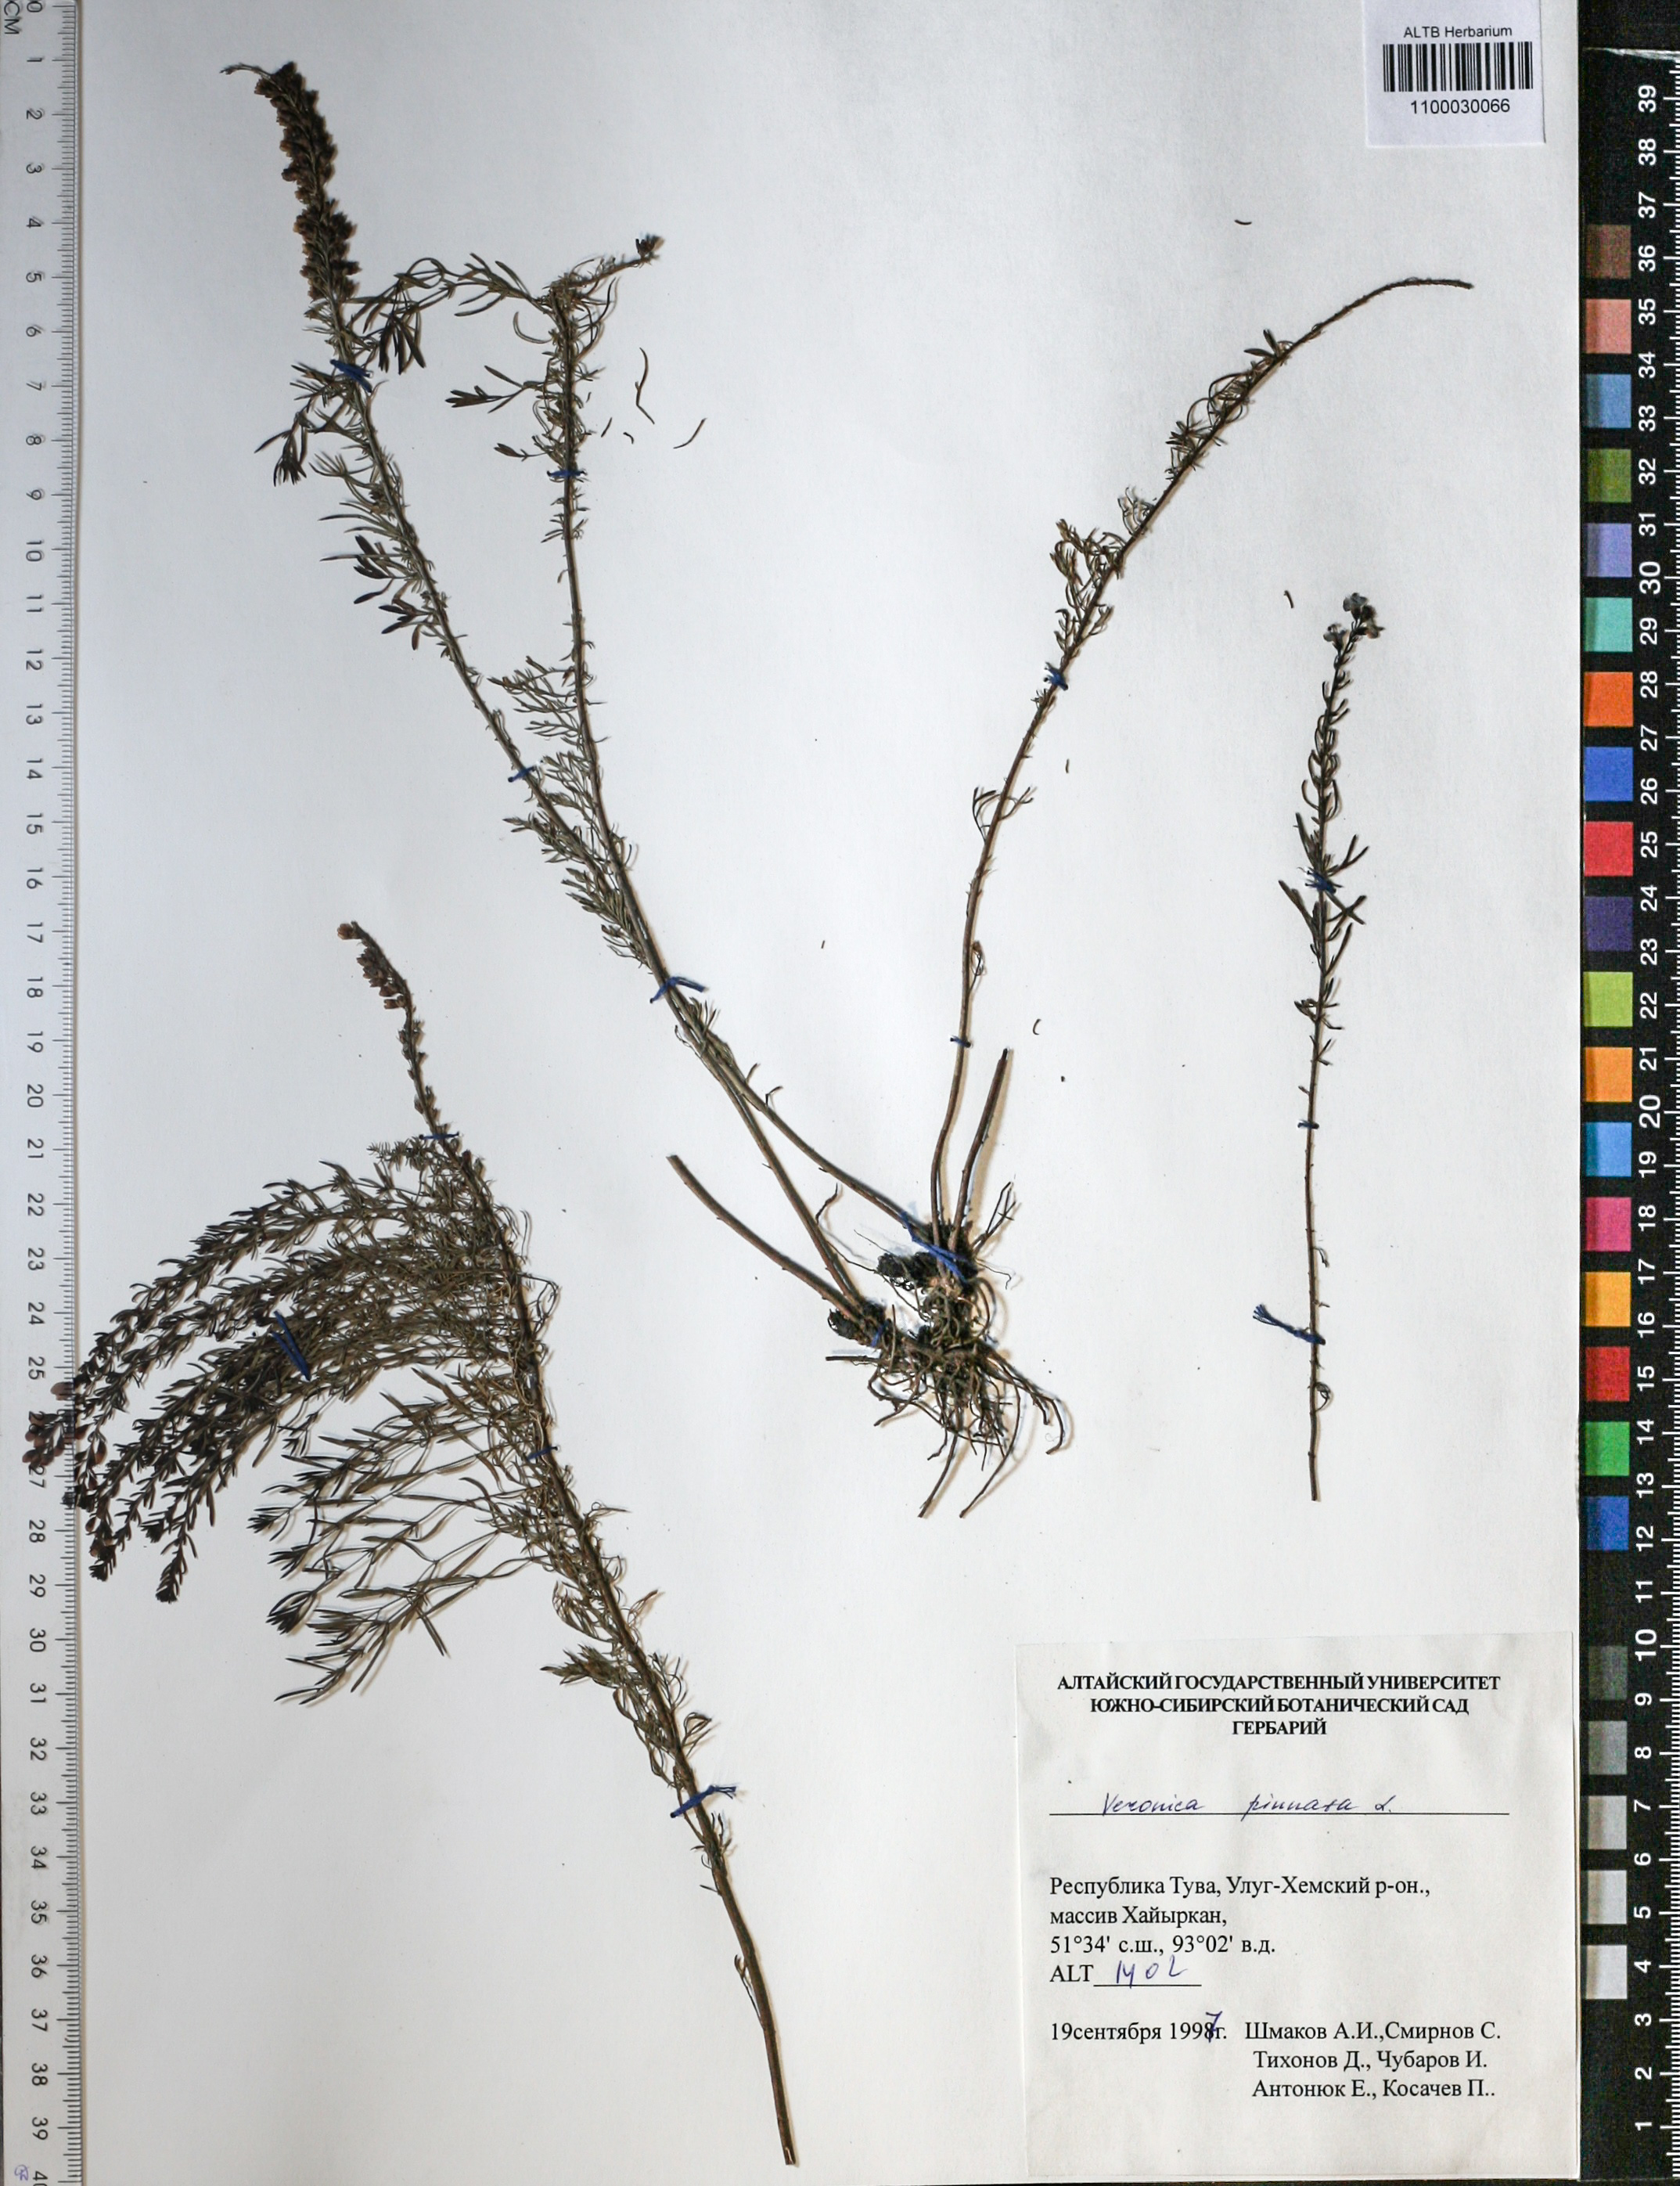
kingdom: Plantae
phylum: Tracheophyta
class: Magnoliopsida
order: Lamiales
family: Plantaginaceae
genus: Veronica
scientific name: Veronica pinnata
